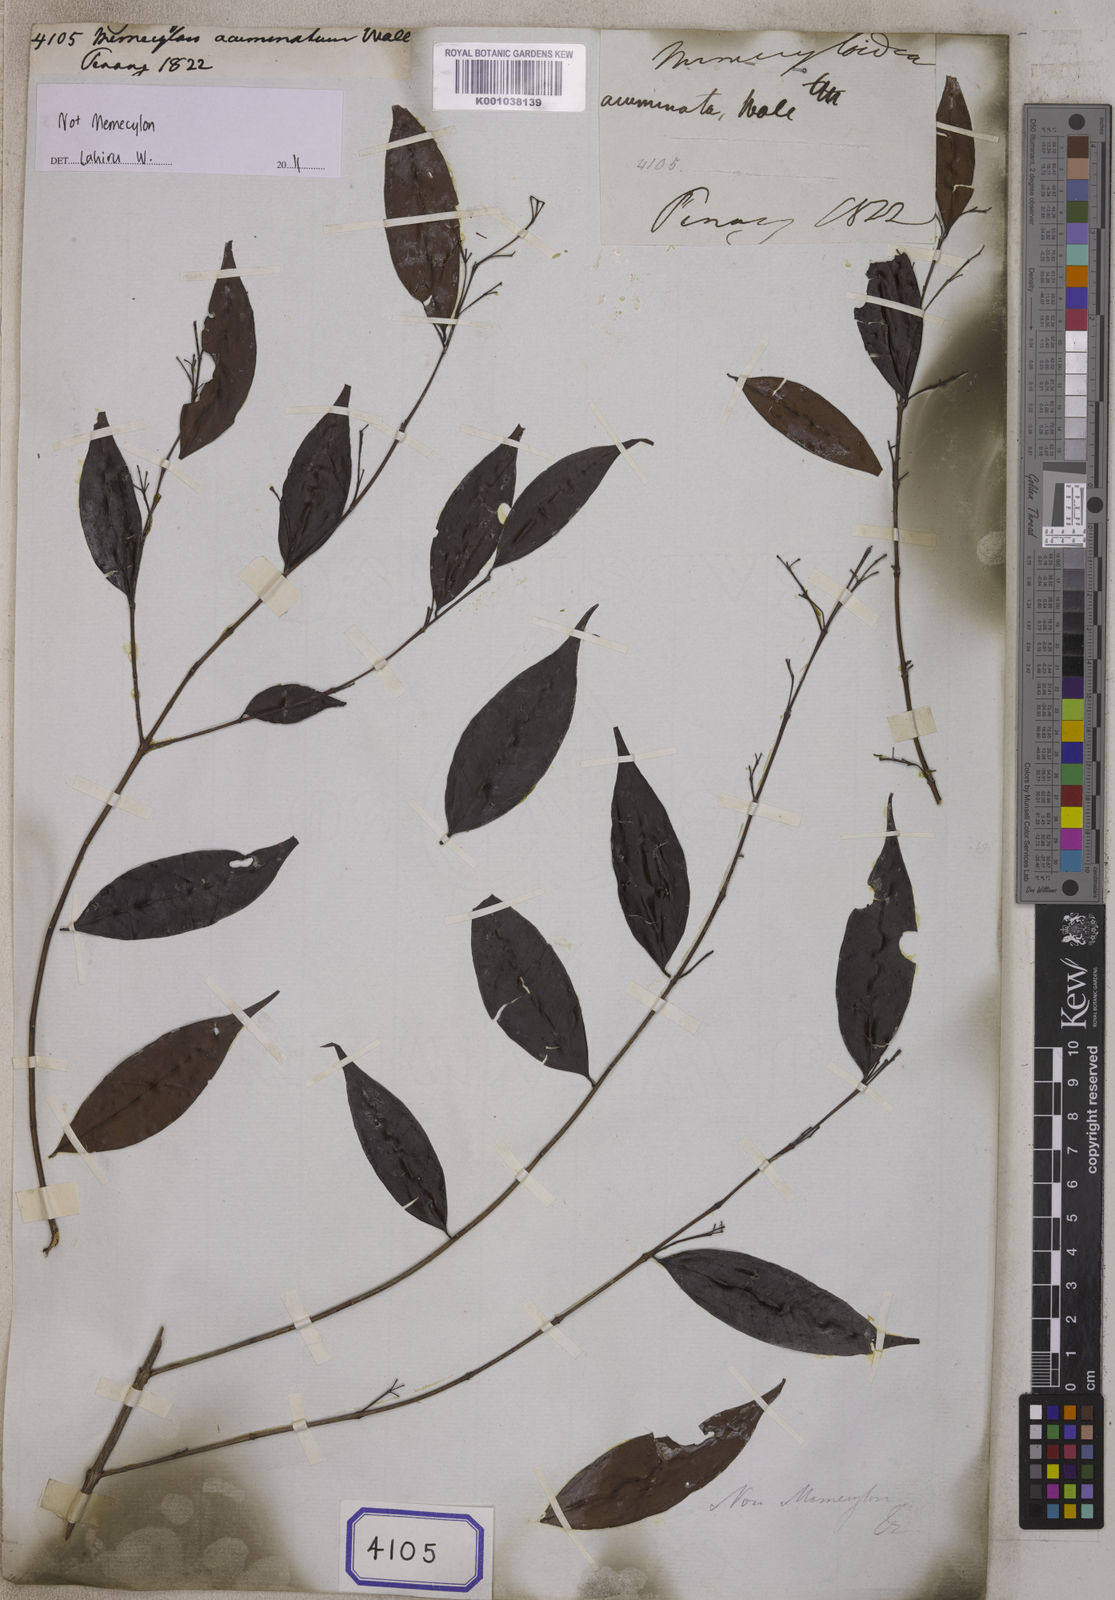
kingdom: Plantae
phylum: Tracheophyta
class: Magnoliopsida
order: Myrtales
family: Melastomataceae
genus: Memecylon
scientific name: Memecylon
